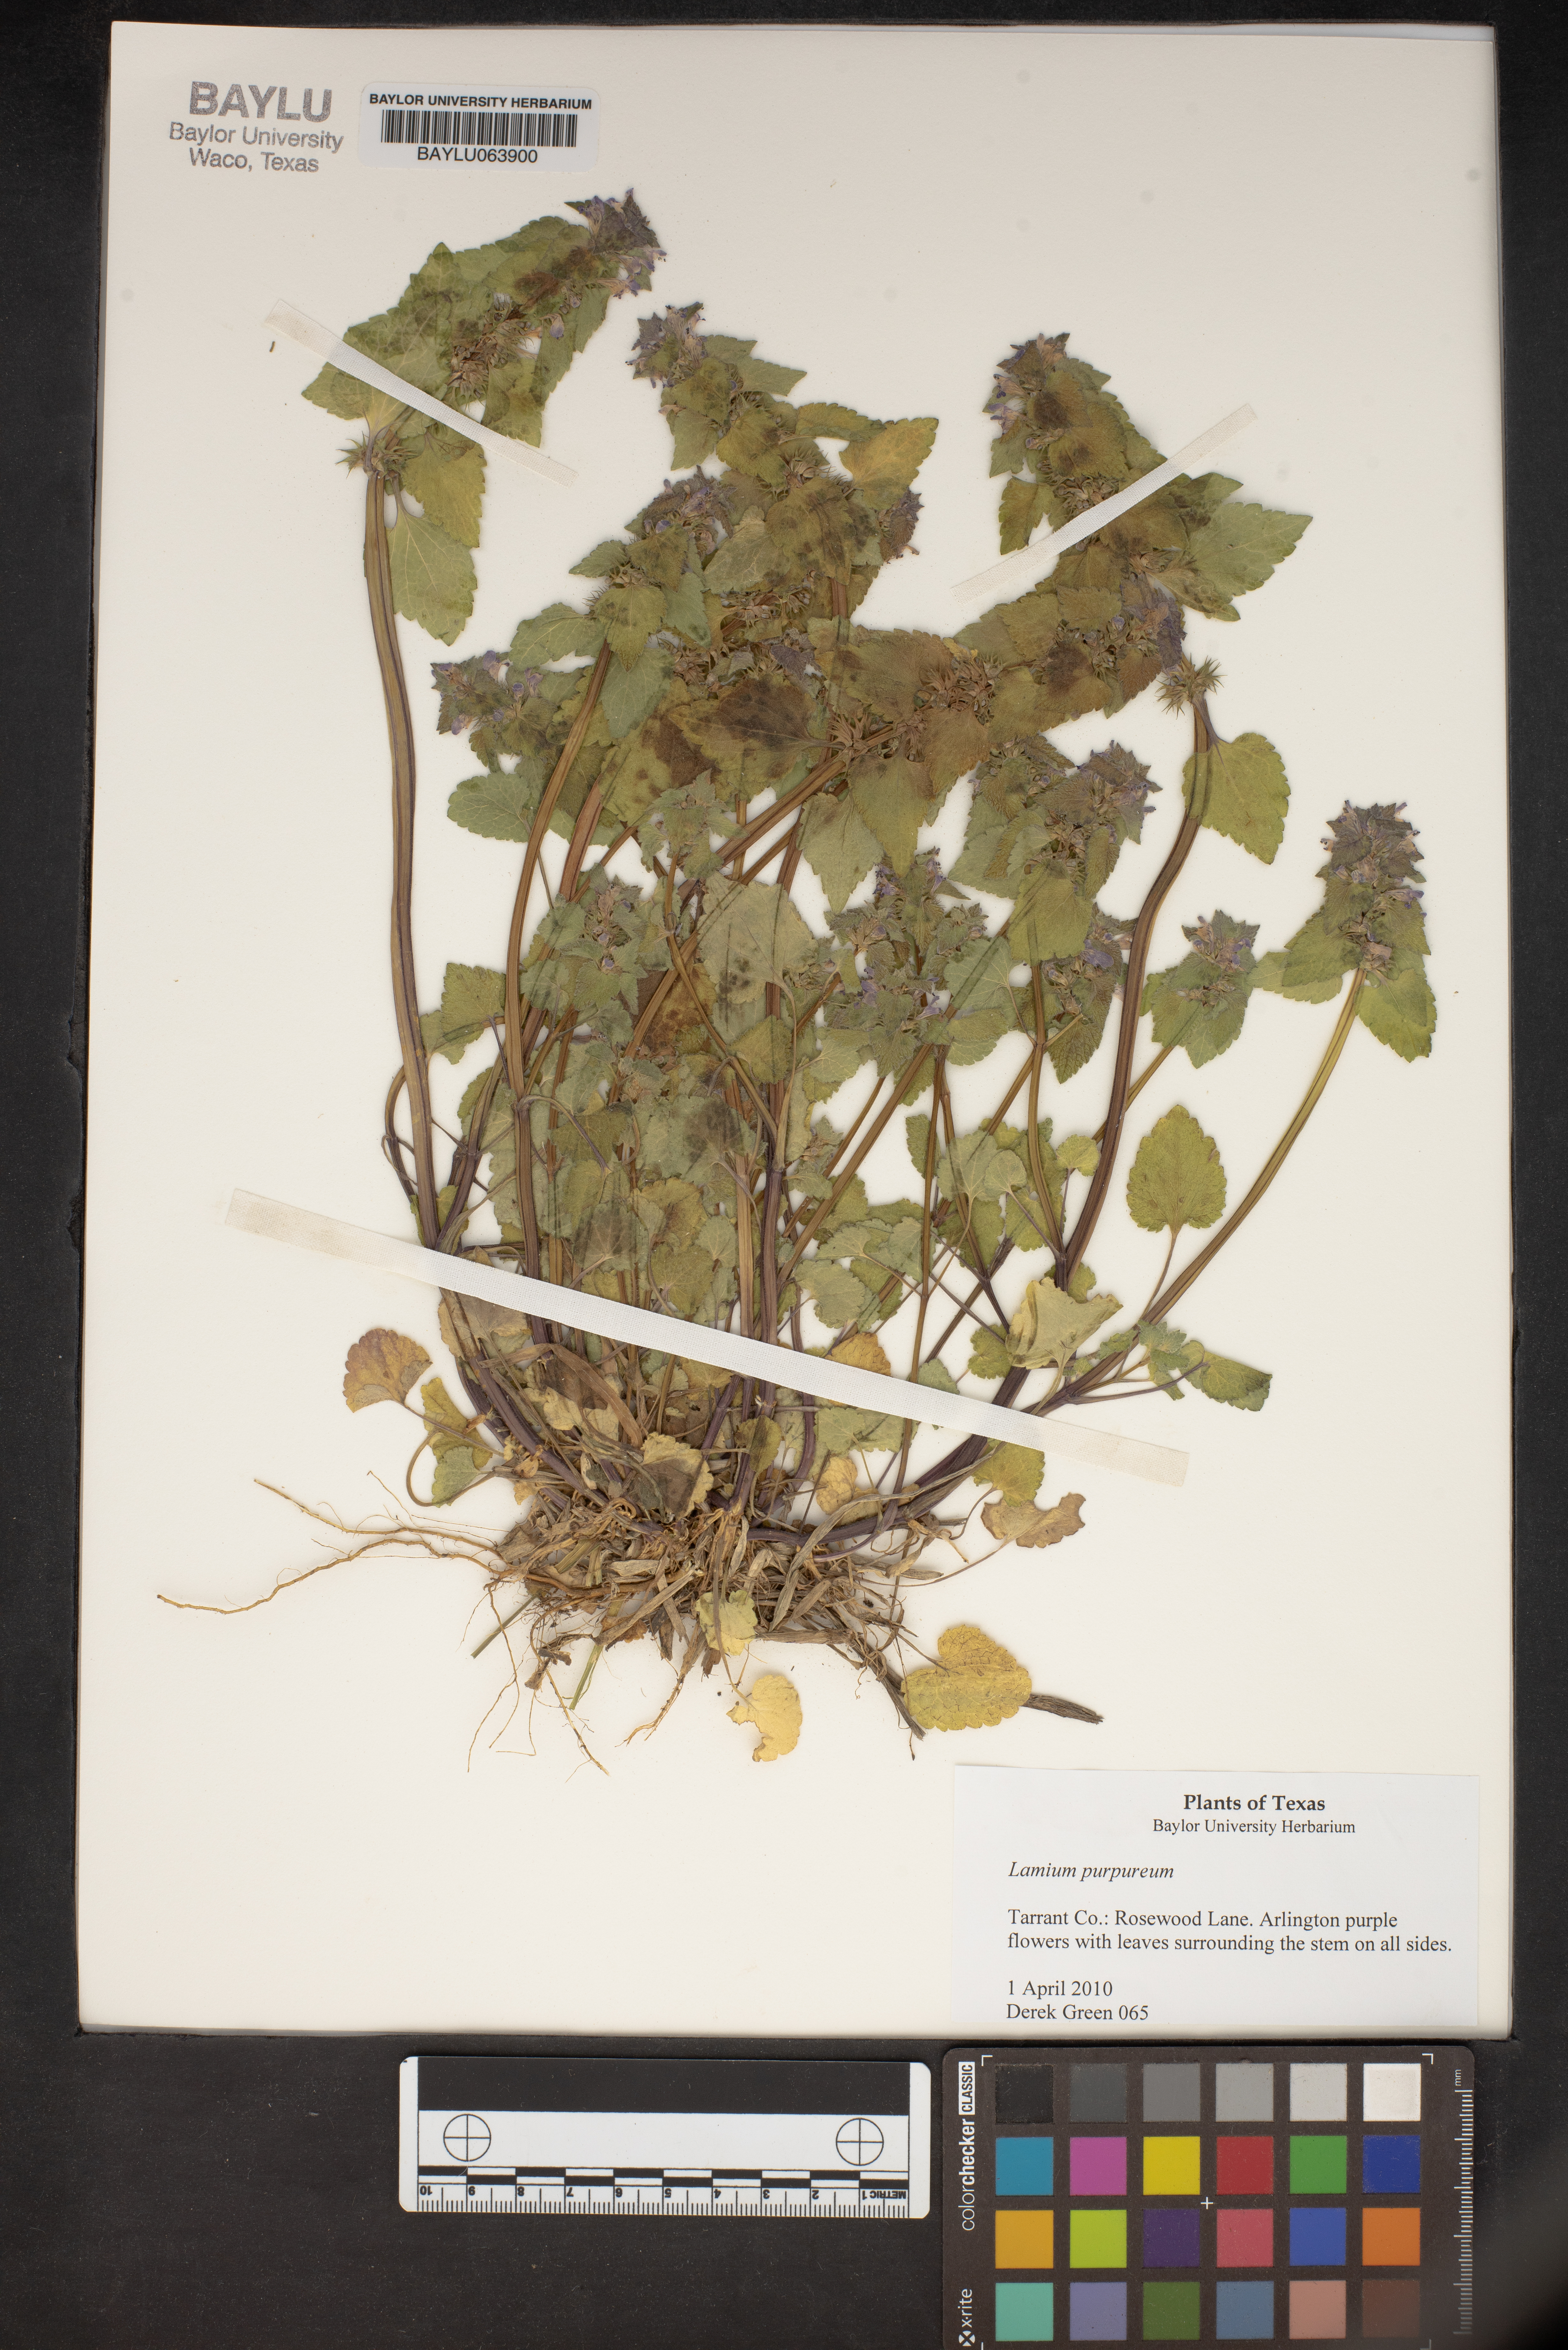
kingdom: Plantae
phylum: Tracheophyta
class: Magnoliopsida
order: Lamiales
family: Lamiaceae
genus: Lamium
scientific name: Lamium purpureum
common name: Red dead-nettle
